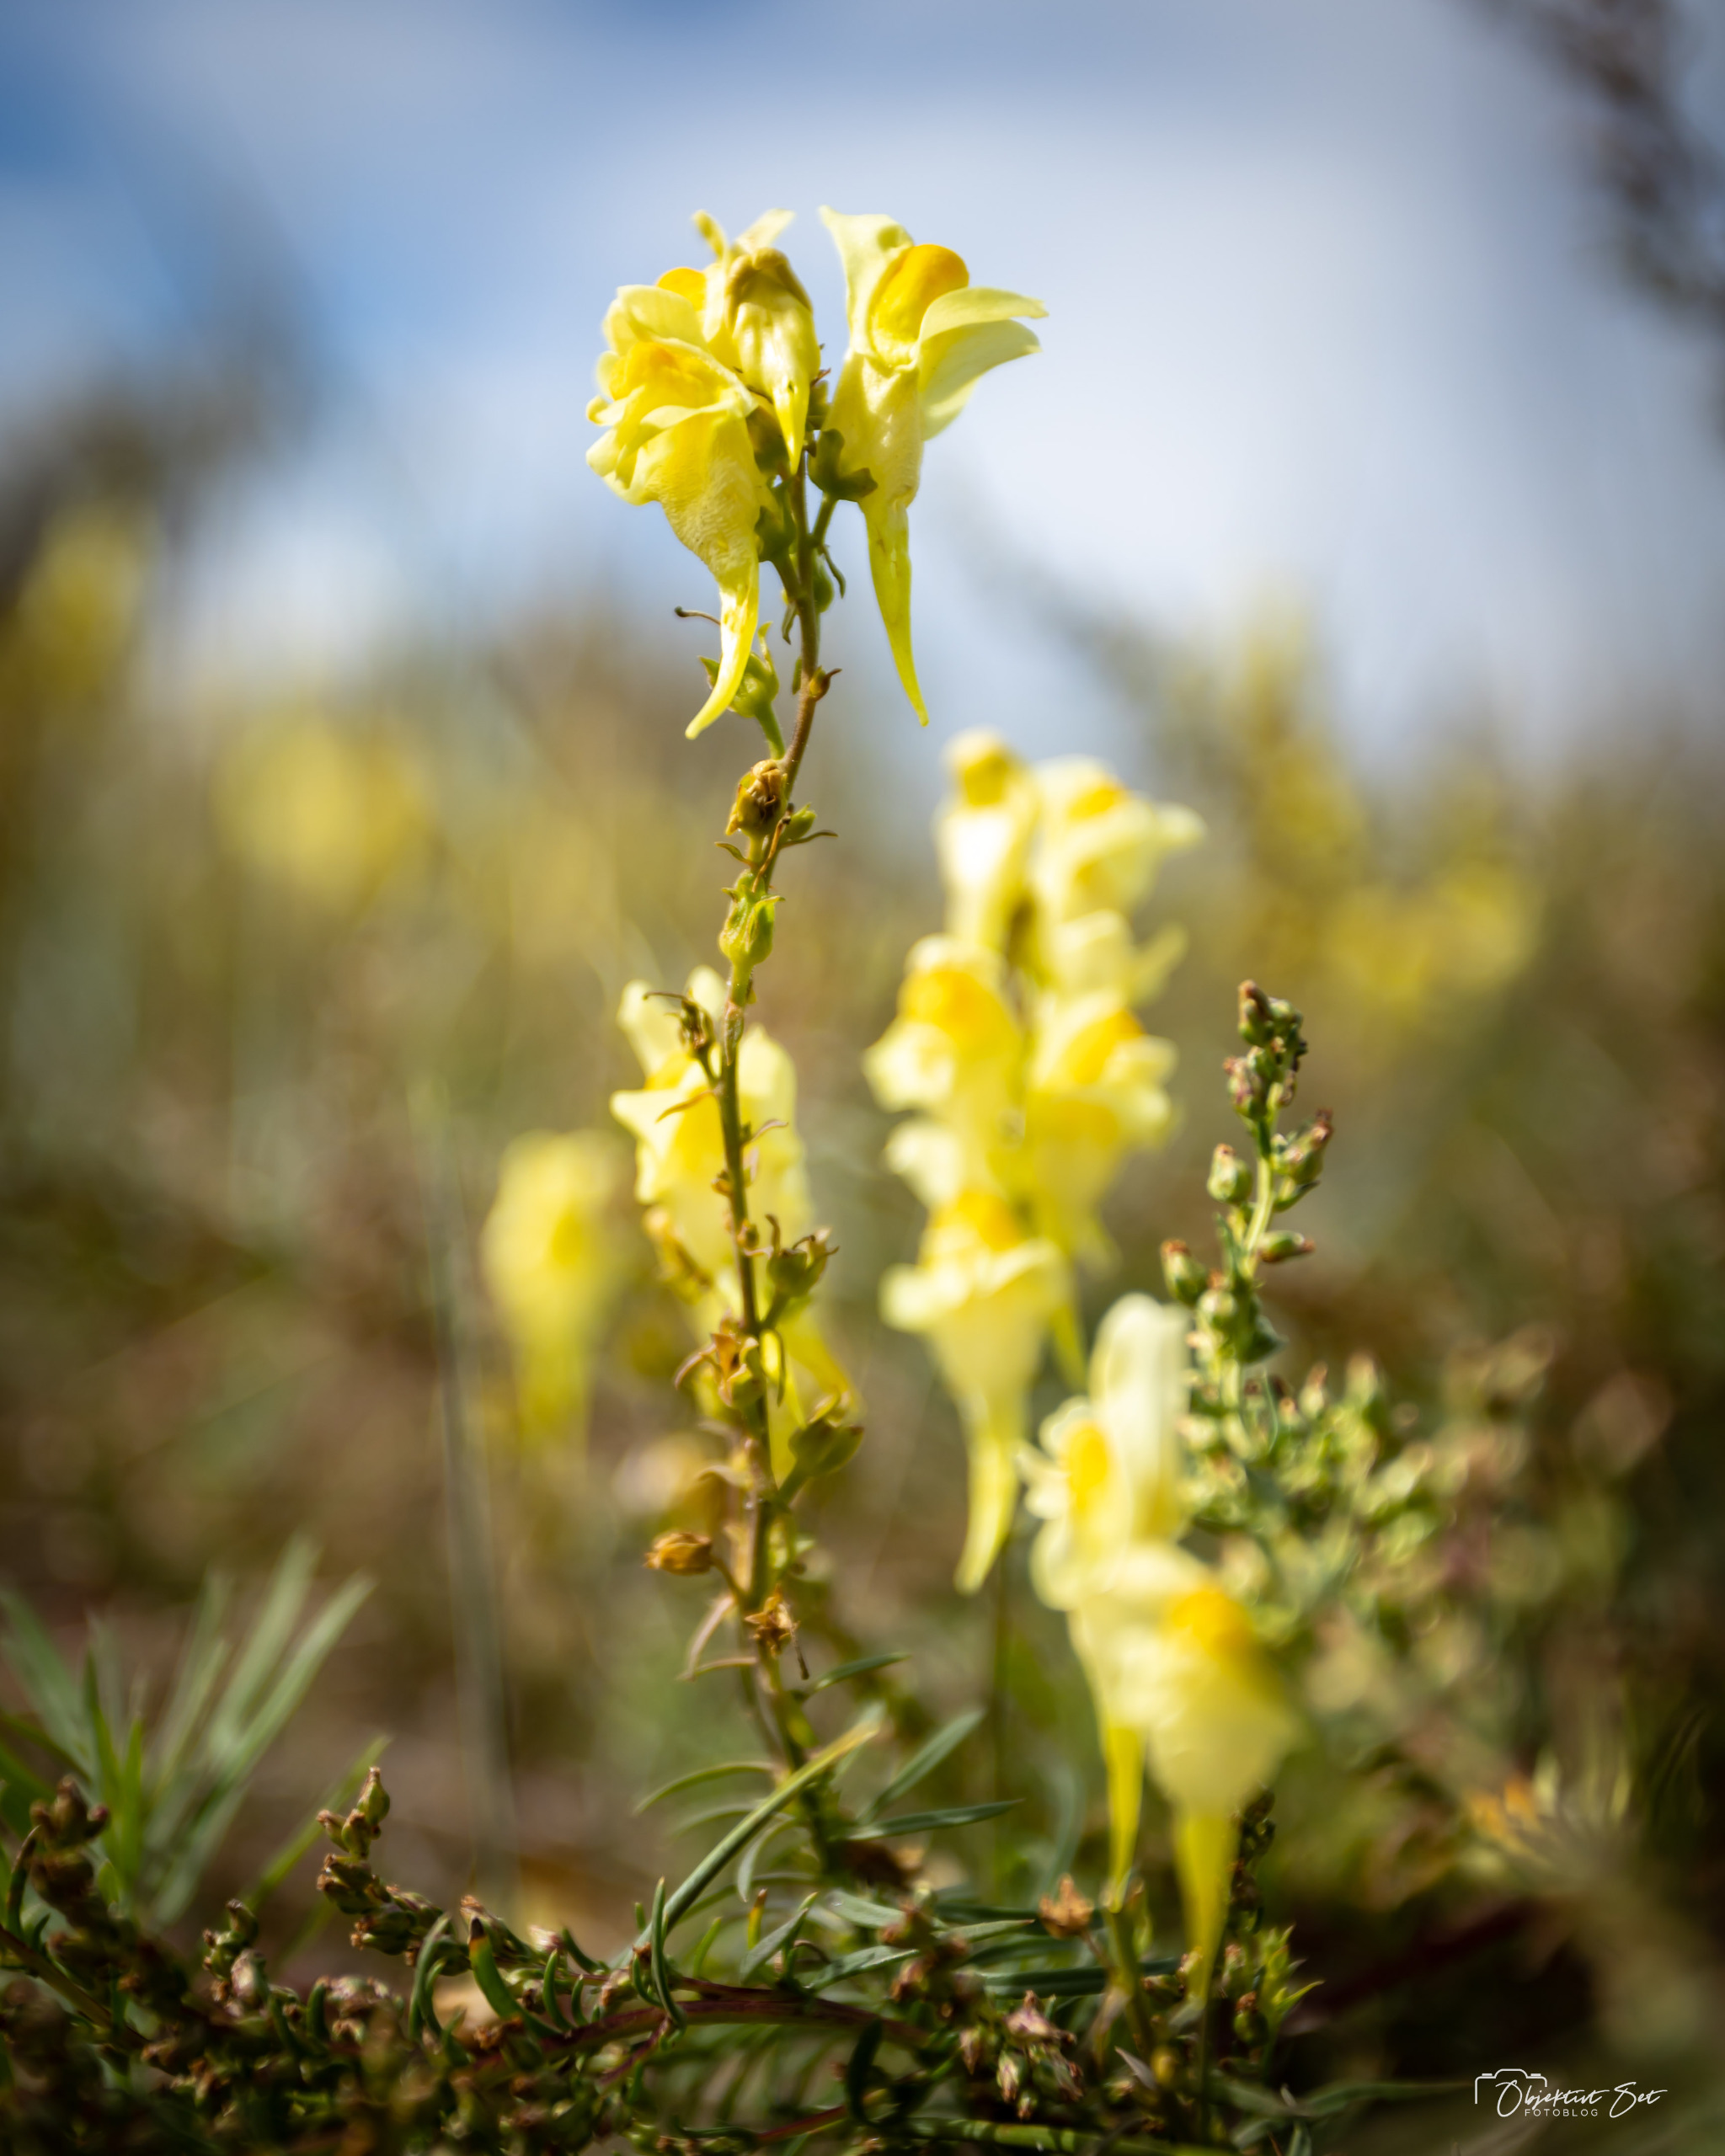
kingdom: Plantae
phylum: Tracheophyta
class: Magnoliopsida
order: Lamiales
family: Plantaginaceae
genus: Linaria
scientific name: Linaria vulgaris
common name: Almindelig torskemund
